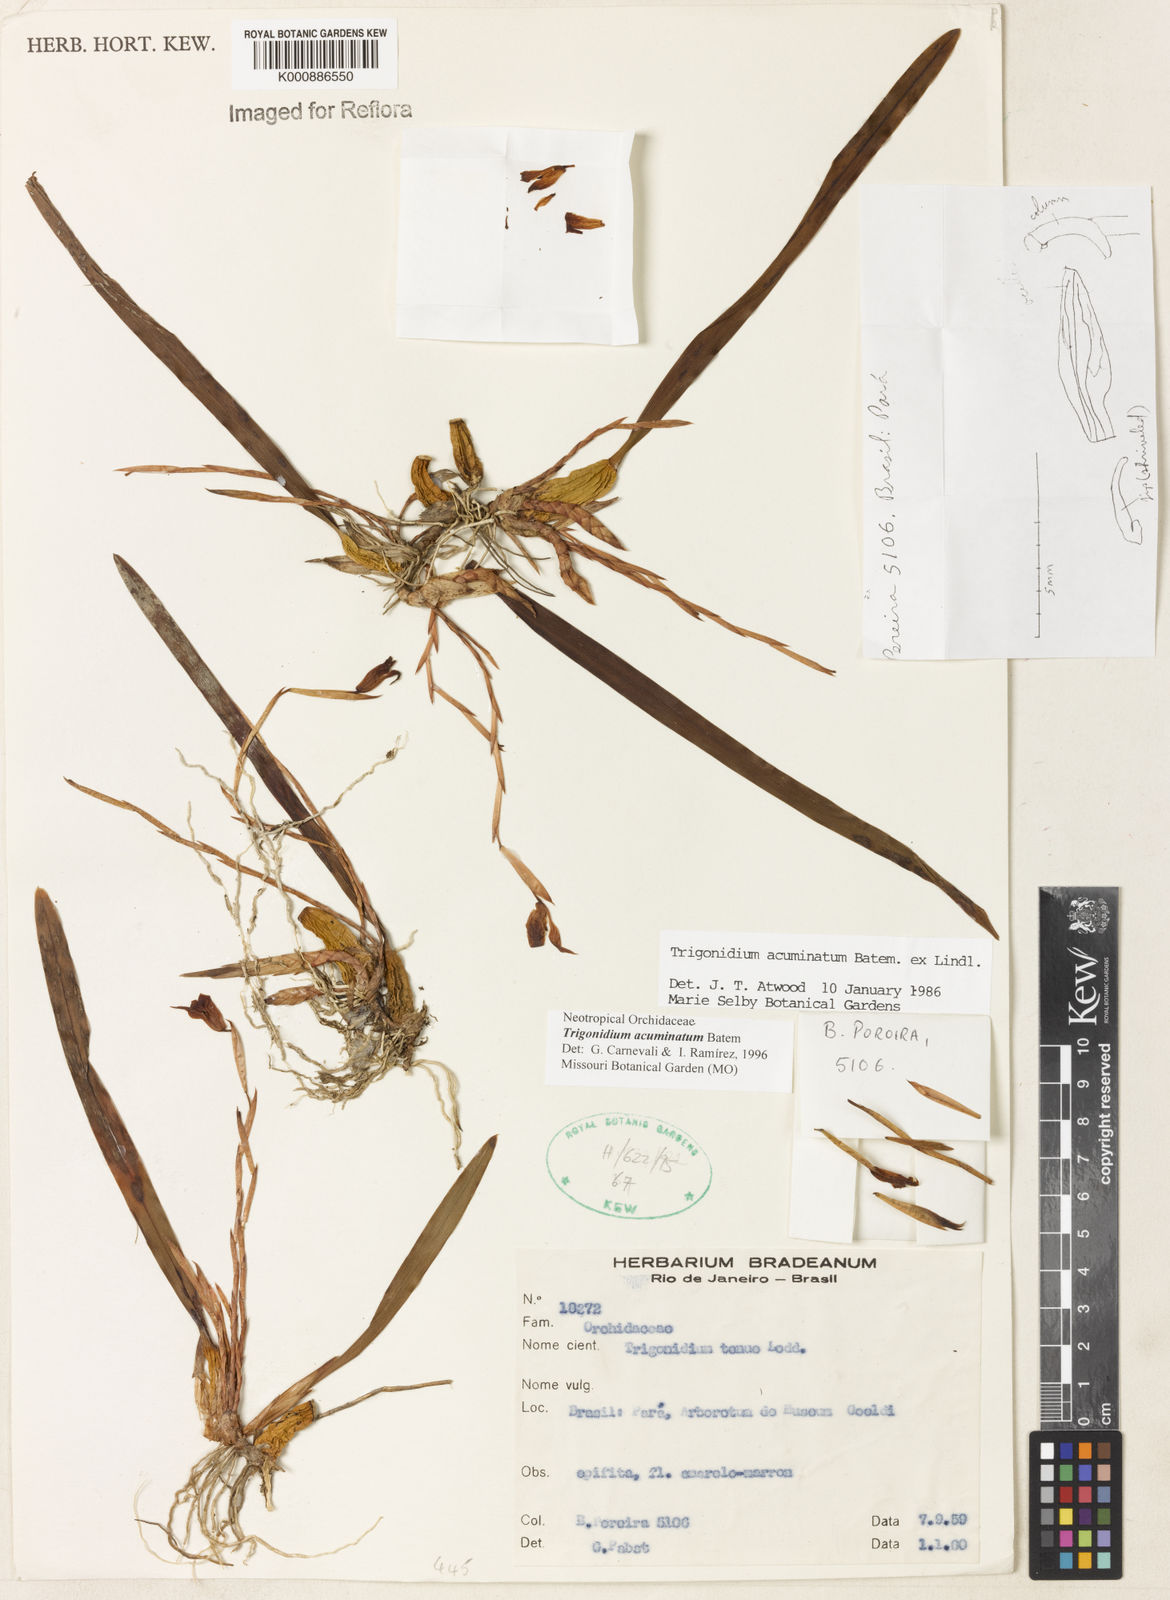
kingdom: Animalia
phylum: Arthropoda
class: Insecta
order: Orthoptera
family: Trigonidiidae
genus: Trigonidium
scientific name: Trigonidium
